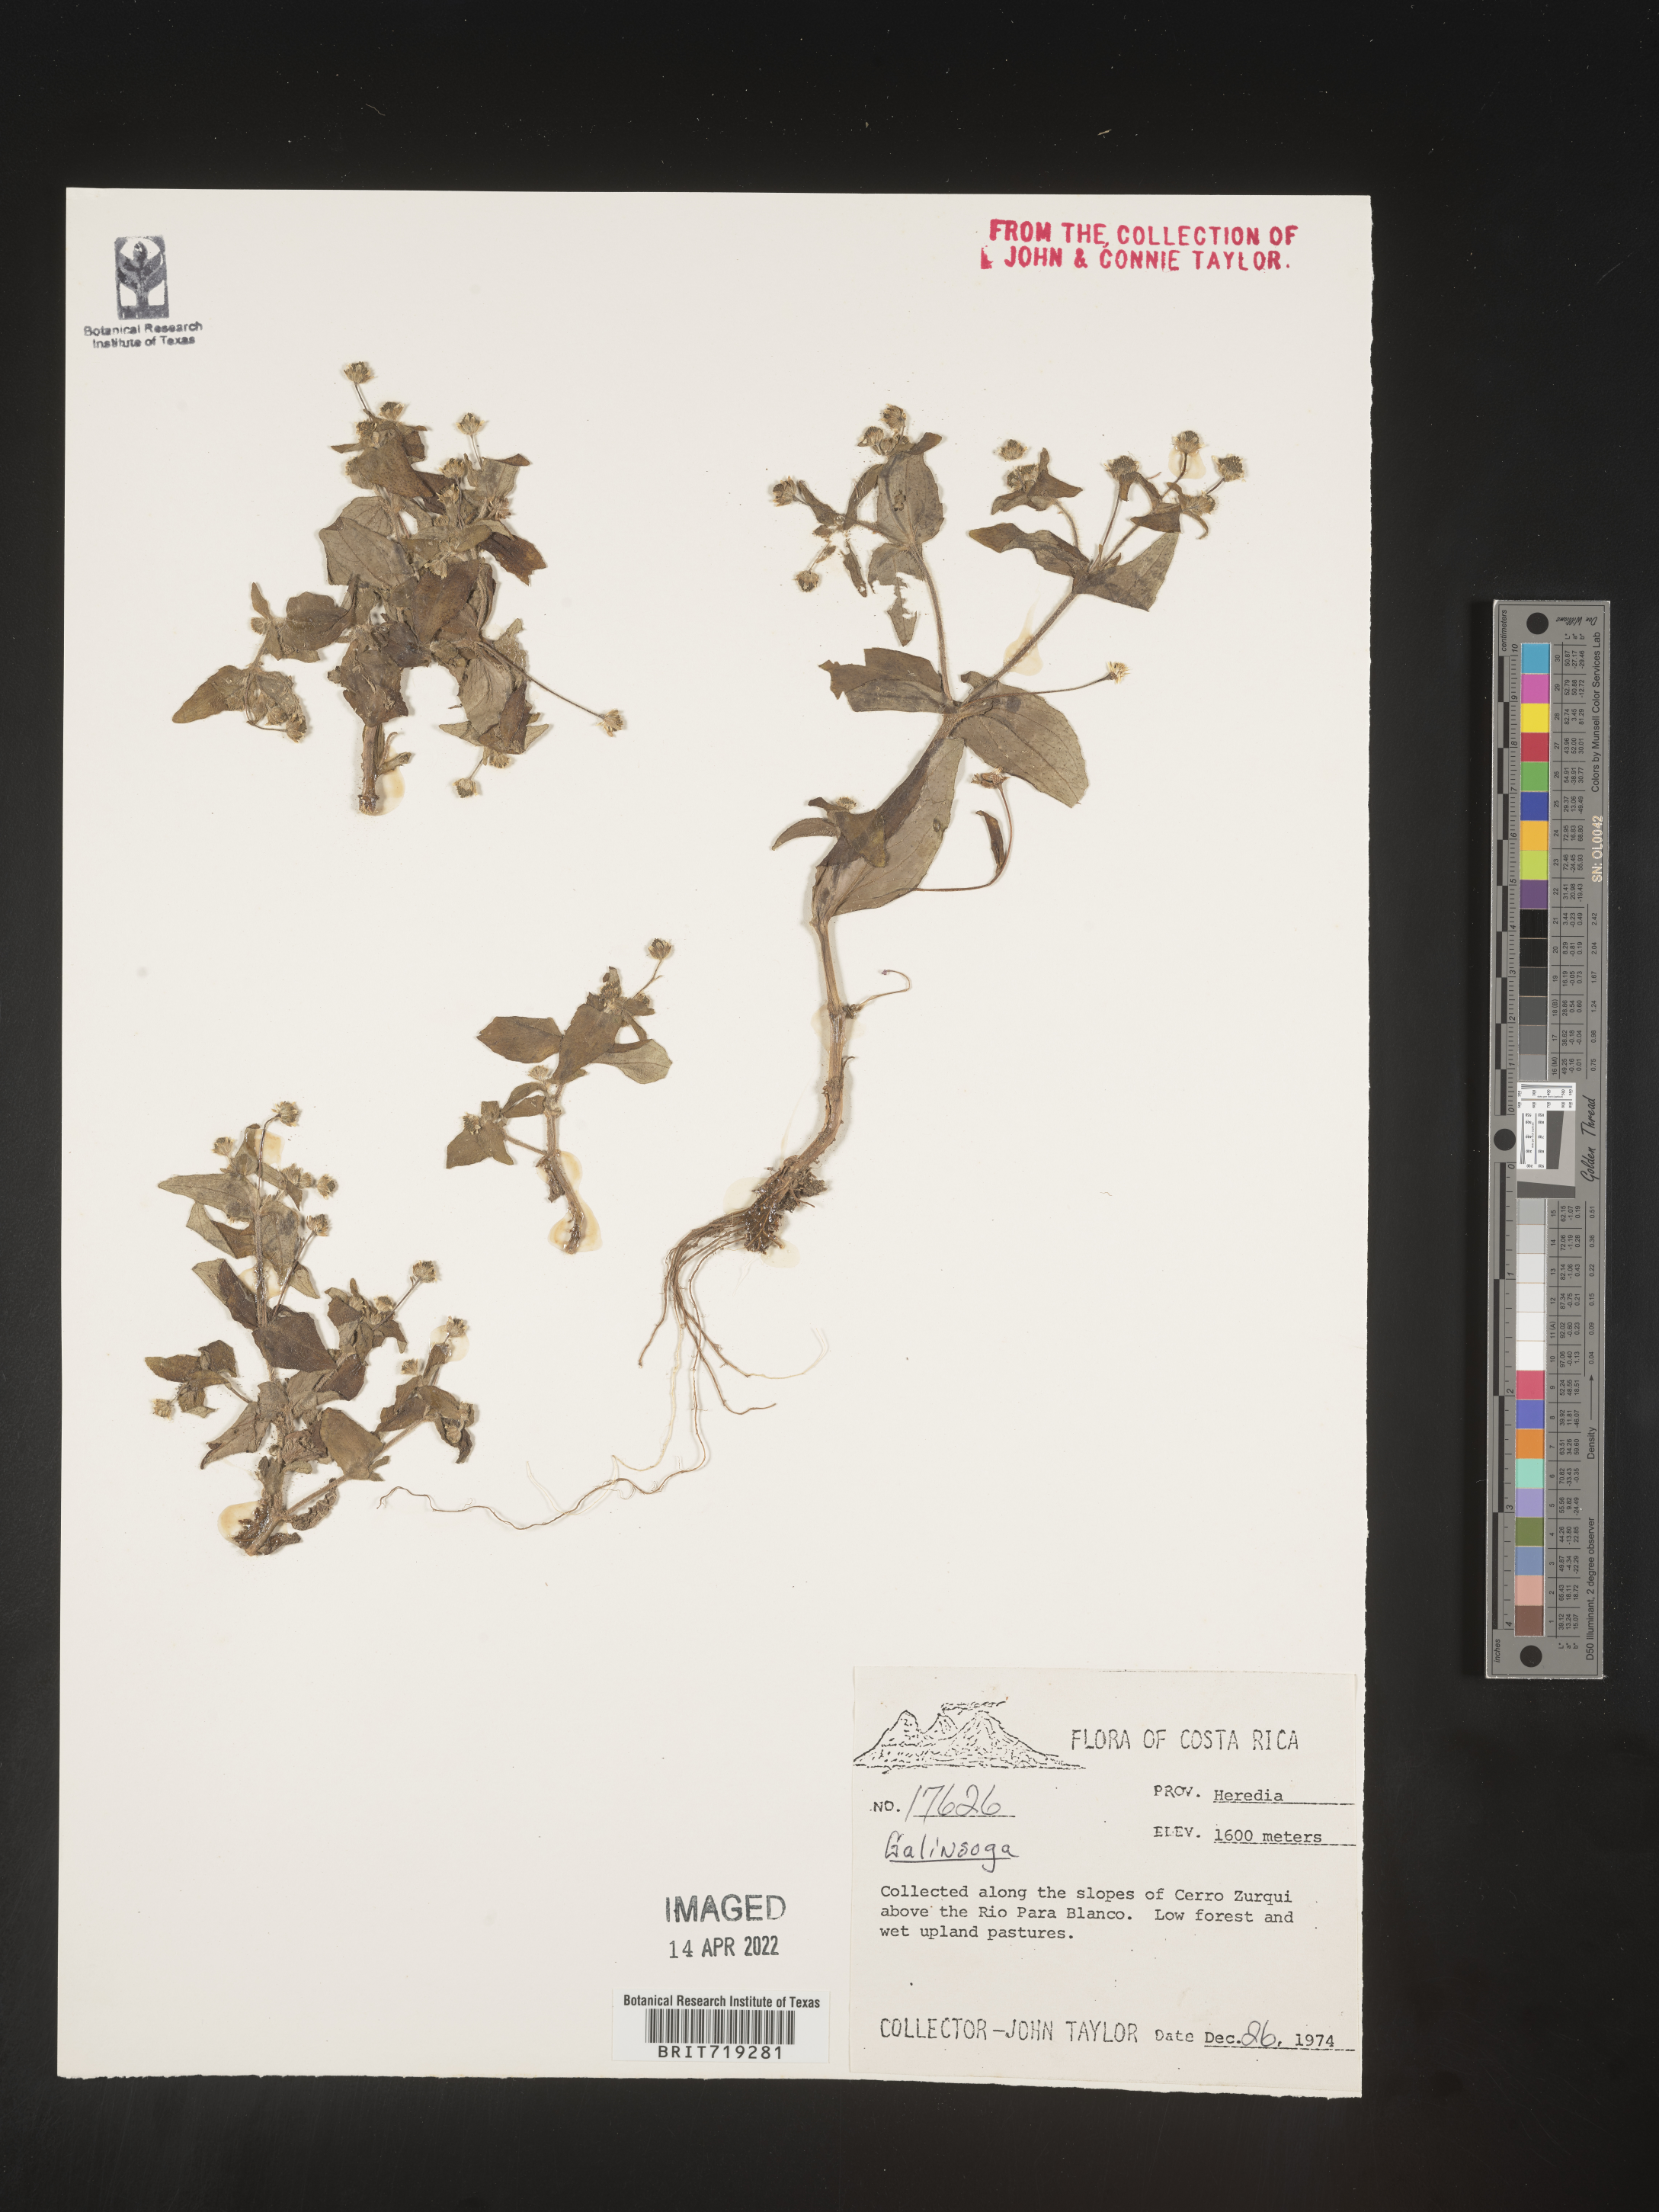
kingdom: Plantae
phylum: Tracheophyta
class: Magnoliopsida
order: Asterales
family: Asteraceae
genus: Galinsoga
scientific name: Galinsoga
